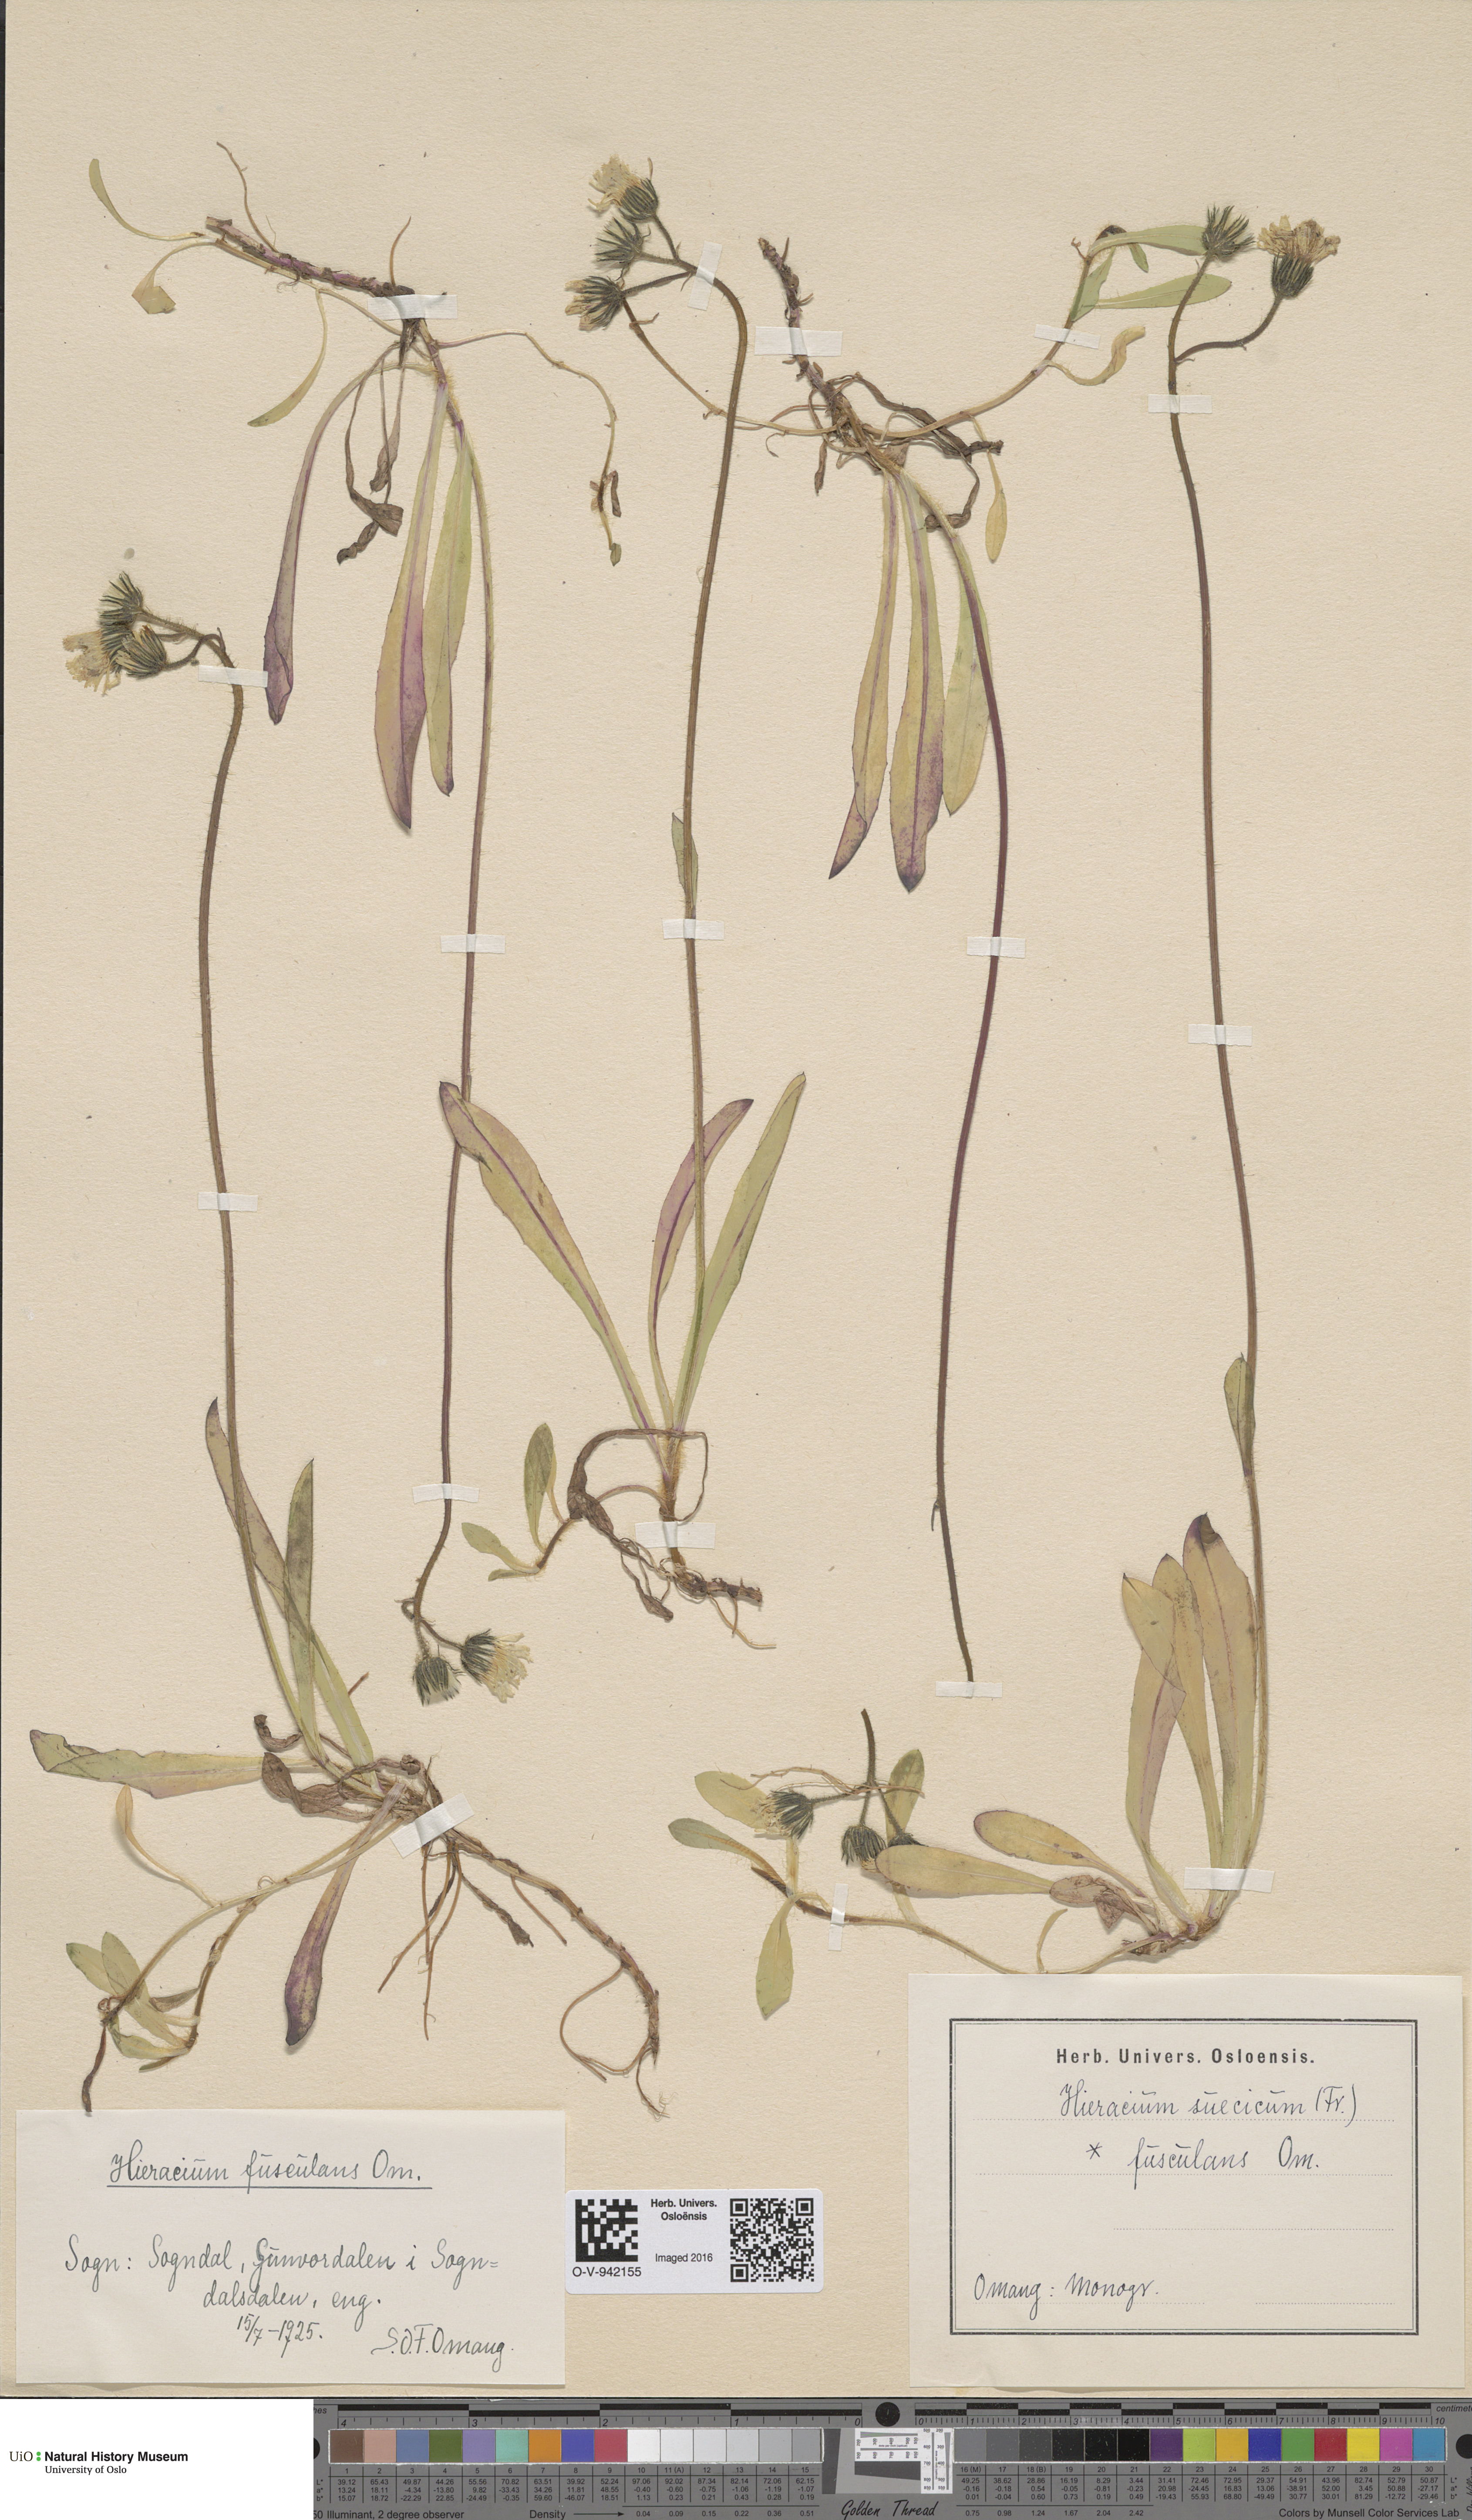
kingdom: Plantae
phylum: Tracheophyta
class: Magnoliopsida
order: Asterales
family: Asteraceae
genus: Pilosella
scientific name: Pilosella dubia
